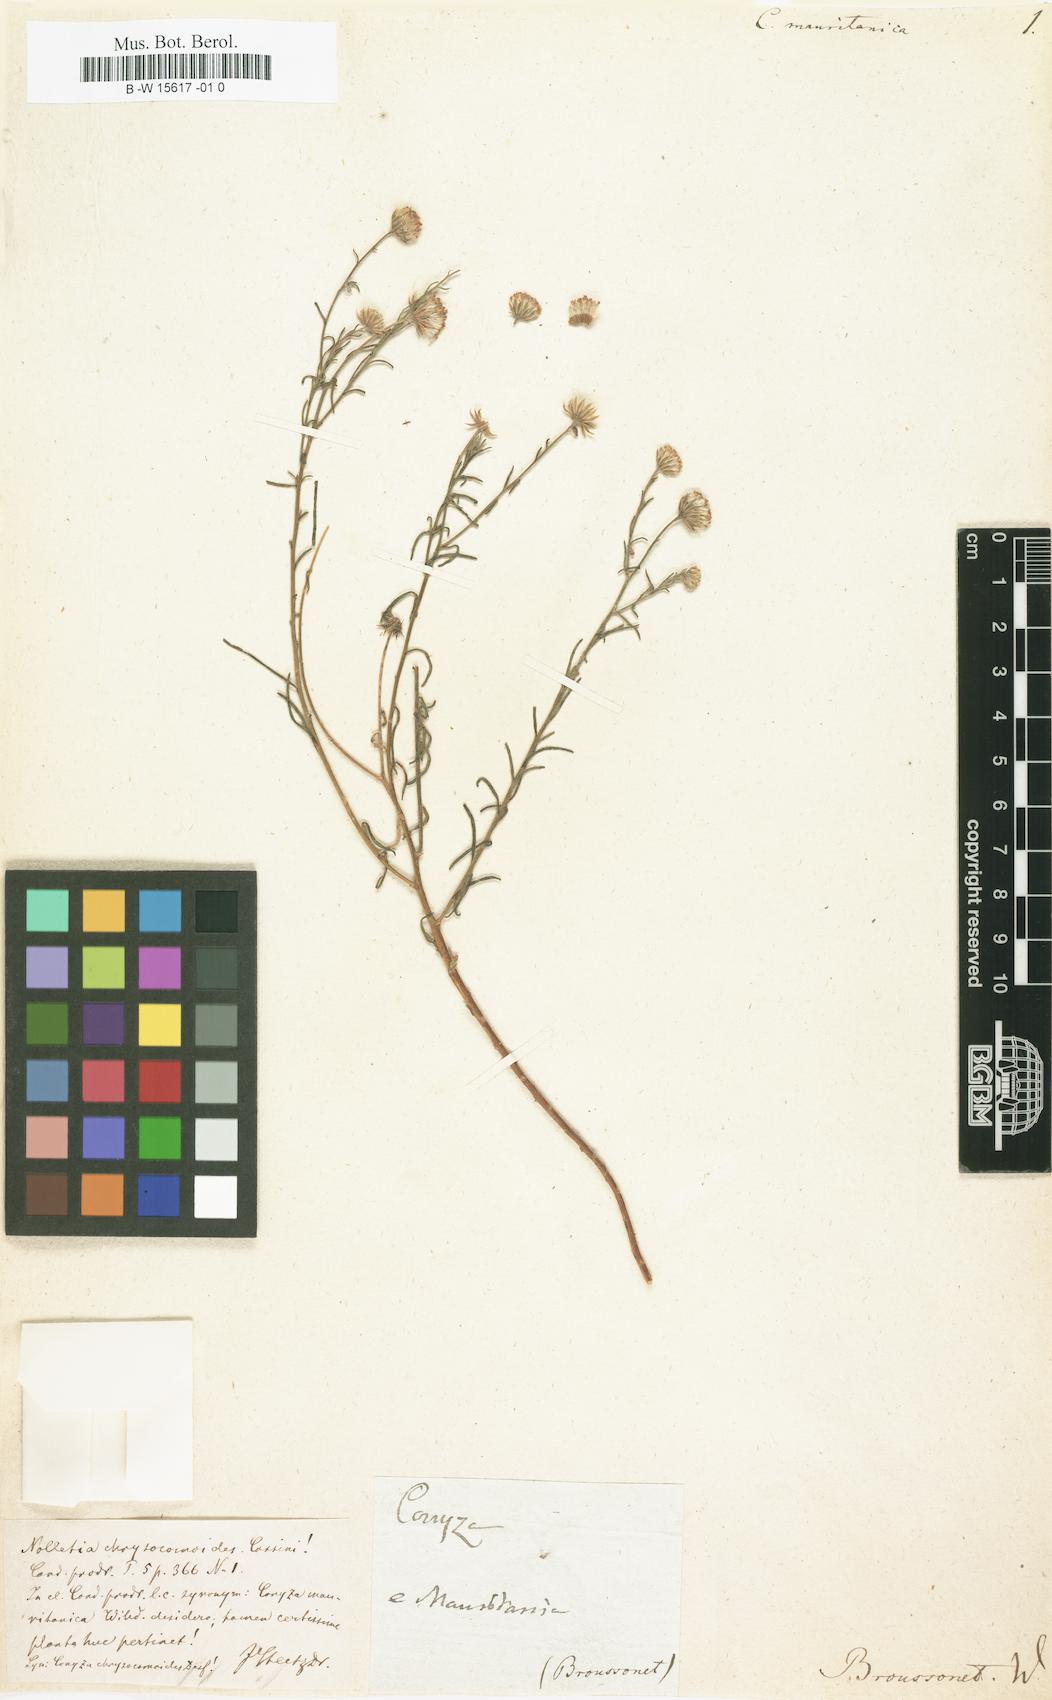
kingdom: Plantae
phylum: Tracheophyta
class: Magnoliopsida
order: Asterales
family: Asteraceae
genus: Conyza
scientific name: Conyza
